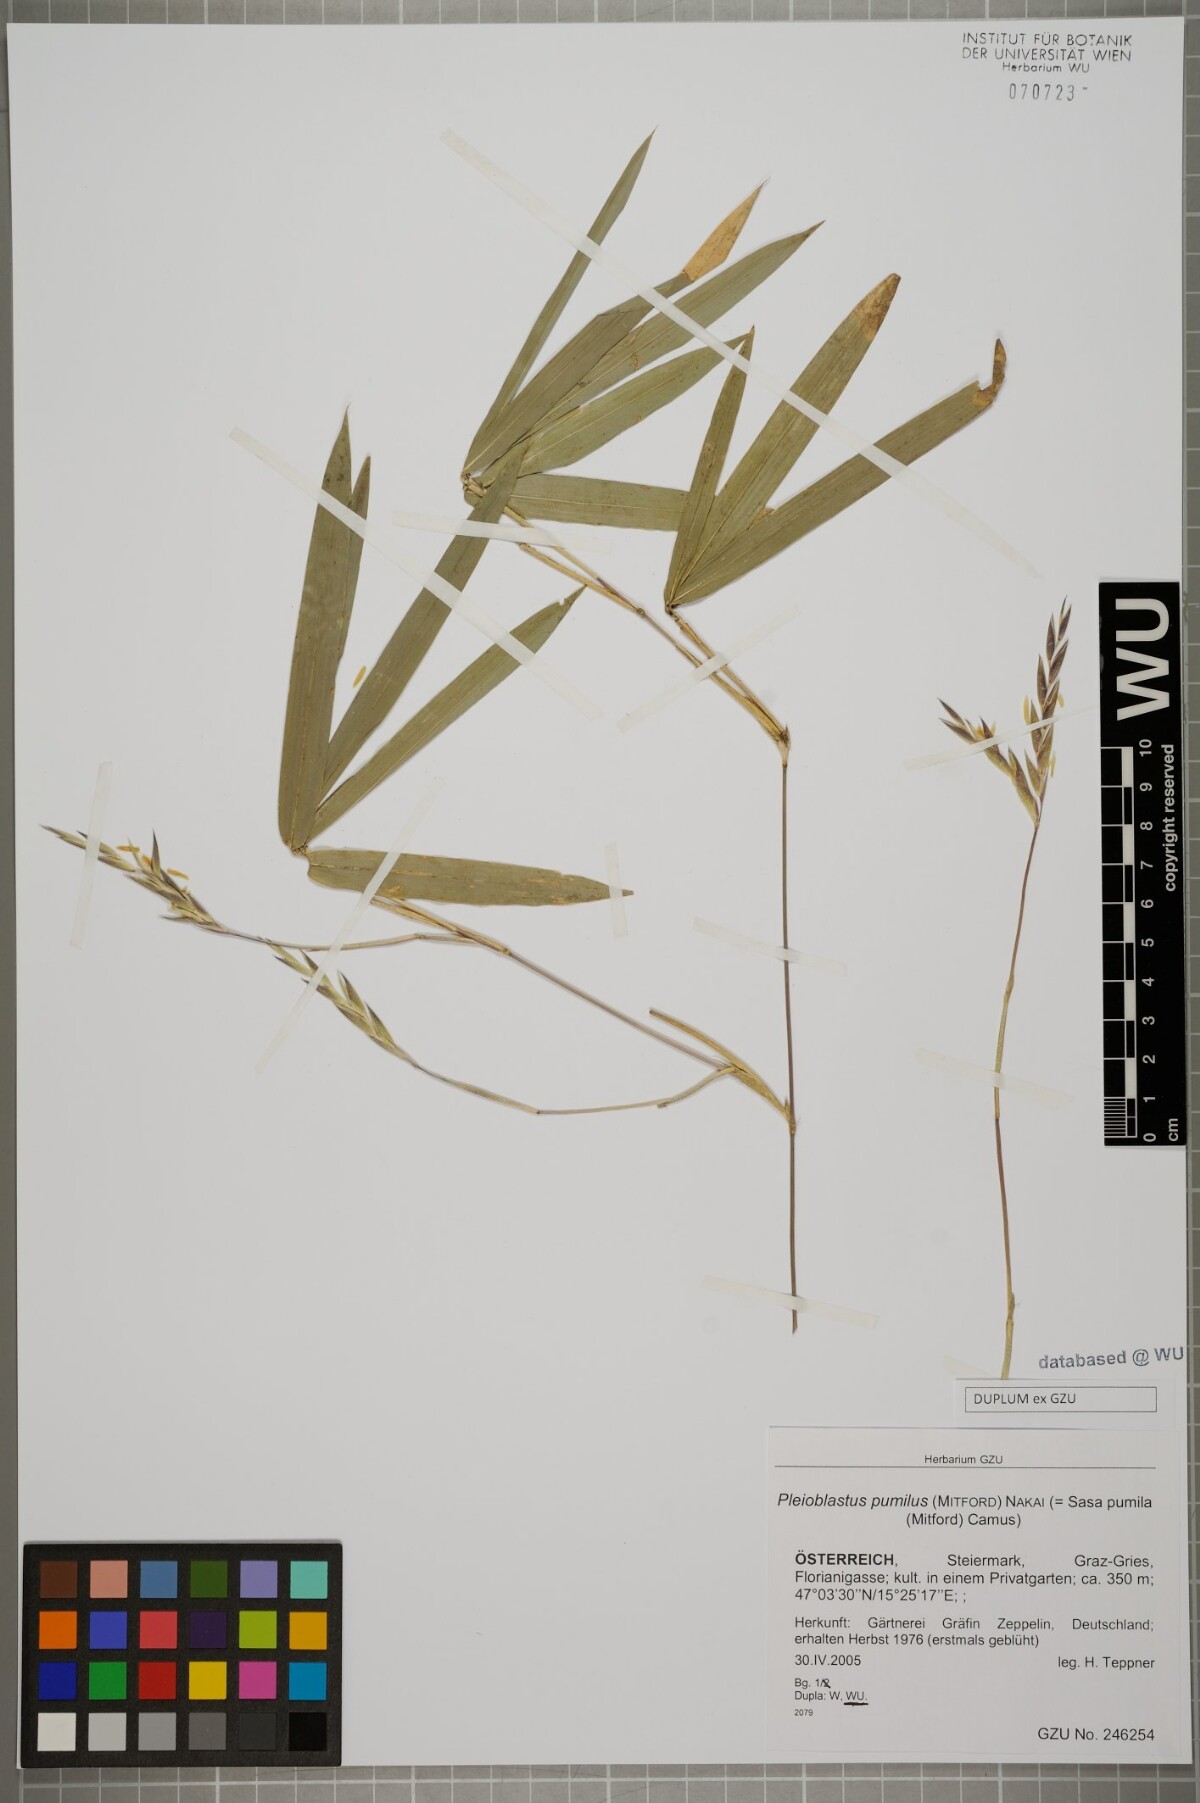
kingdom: Plantae
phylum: Tracheophyta
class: Liliopsida
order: Poales
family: Poaceae
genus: Pleioblastus
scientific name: Pleioblastus argenteostriatus
